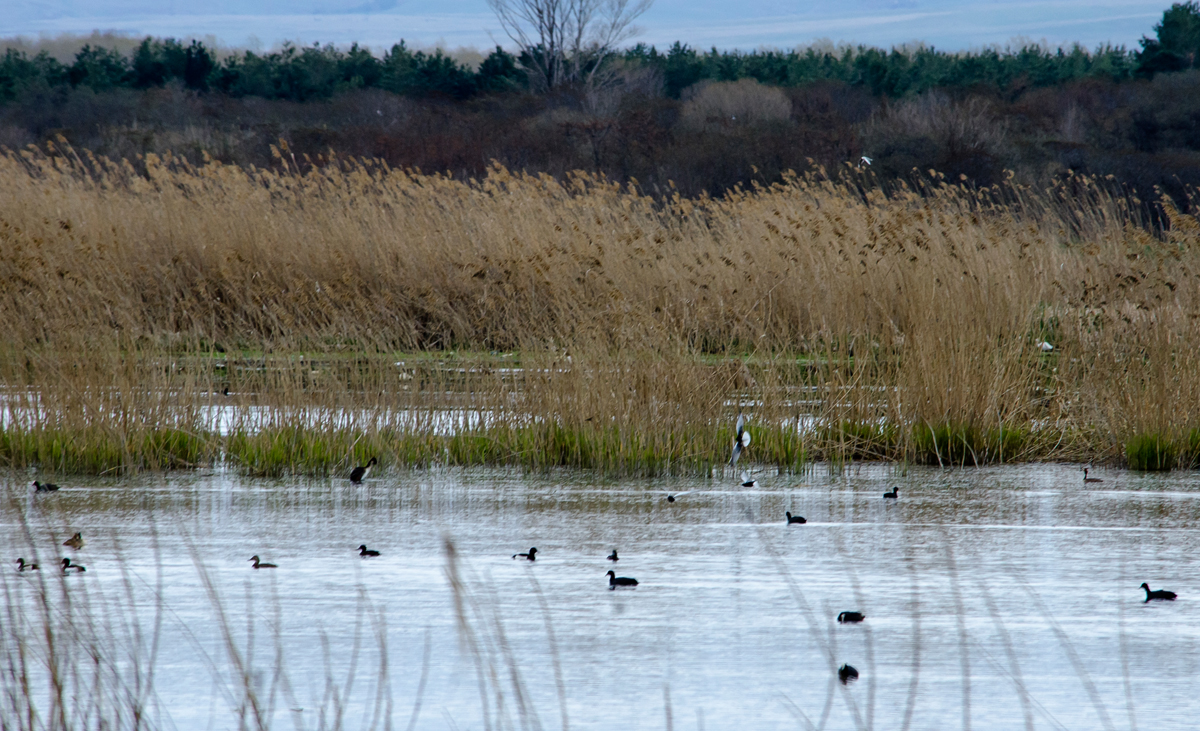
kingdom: Animalia
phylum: Chordata
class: Aves
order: Charadriiformes
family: Laridae
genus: Chlidonias
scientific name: Chlidonias leucopterus
